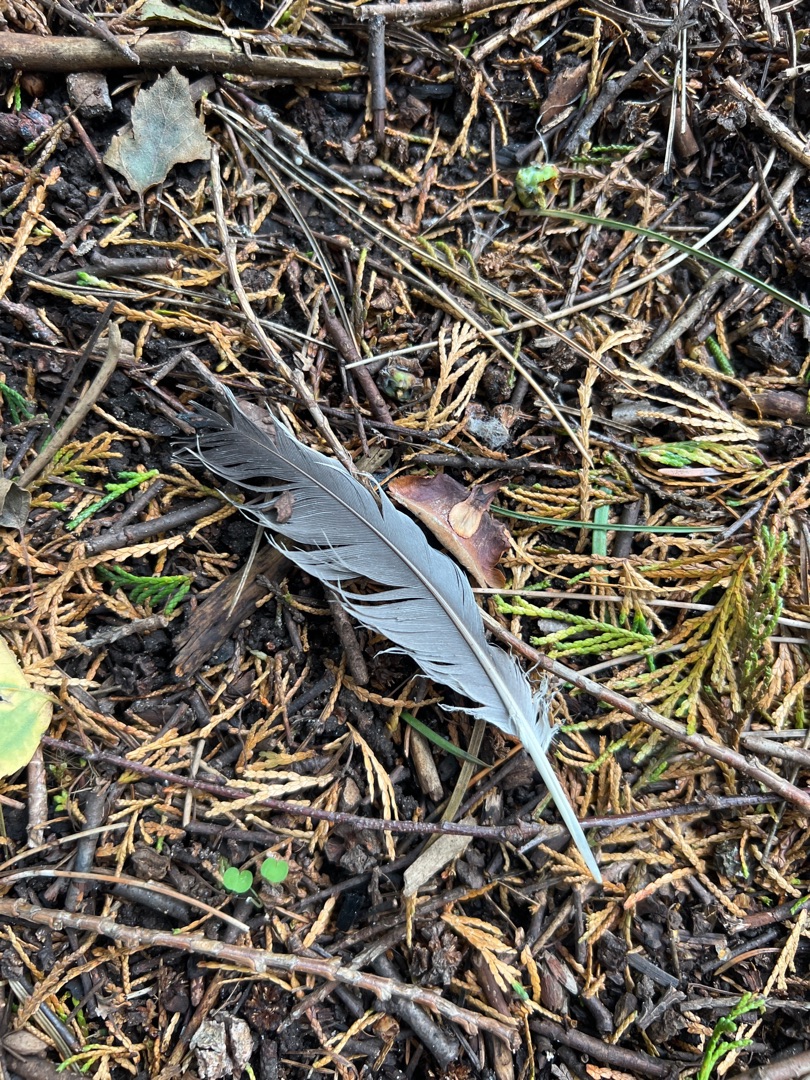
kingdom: Animalia
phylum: Chordata
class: Aves
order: Columbiformes
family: Columbidae
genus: Columba
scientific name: Columba palumbus
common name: Ringdue
